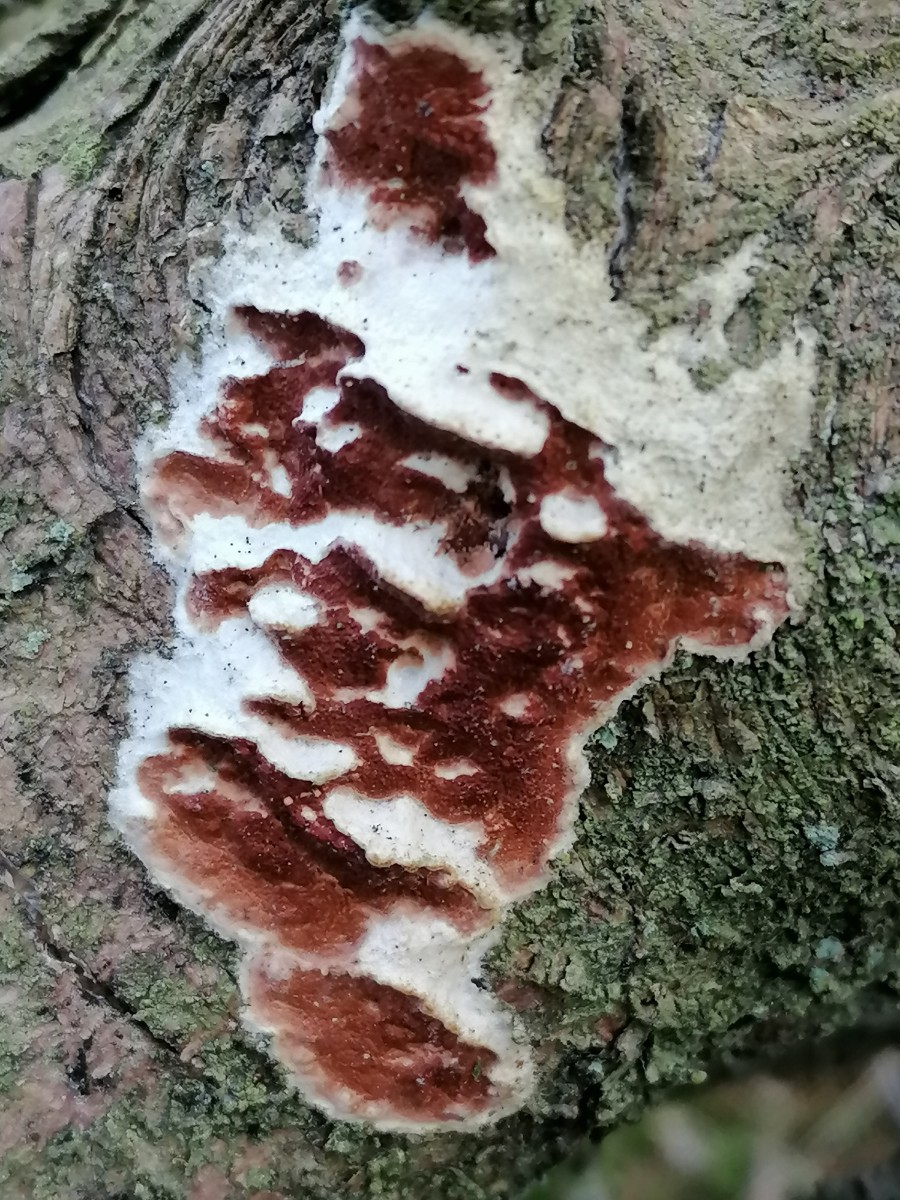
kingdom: Fungi
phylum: Basidiomycota
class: Agaricomycetes
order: Polyporales
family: Irpicaceae
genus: Meruliopsis
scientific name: Meruliopsis taxicola
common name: purpurbrun foldporesvamp
